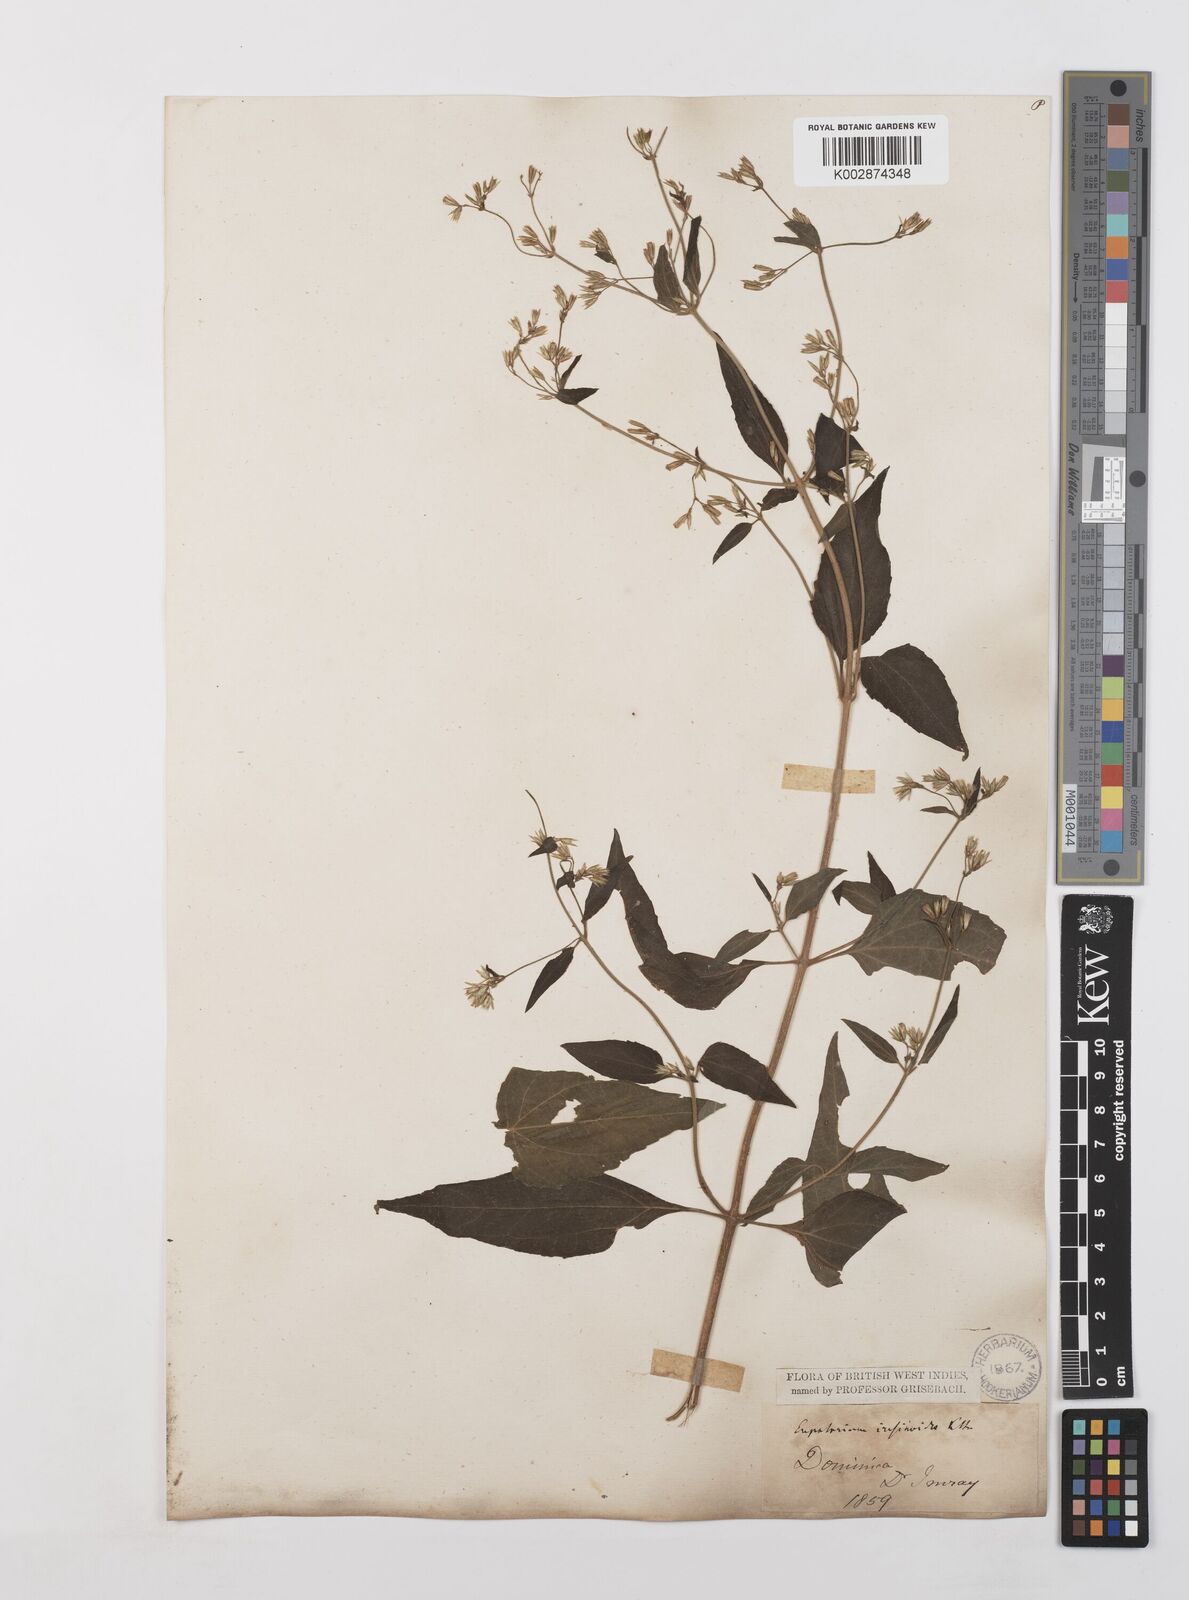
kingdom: Plantae
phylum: Tracheophyta
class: Magnoliopsida
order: Asterales
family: Asteraceae
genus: Condylidium
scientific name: Condylidium iresinoides
